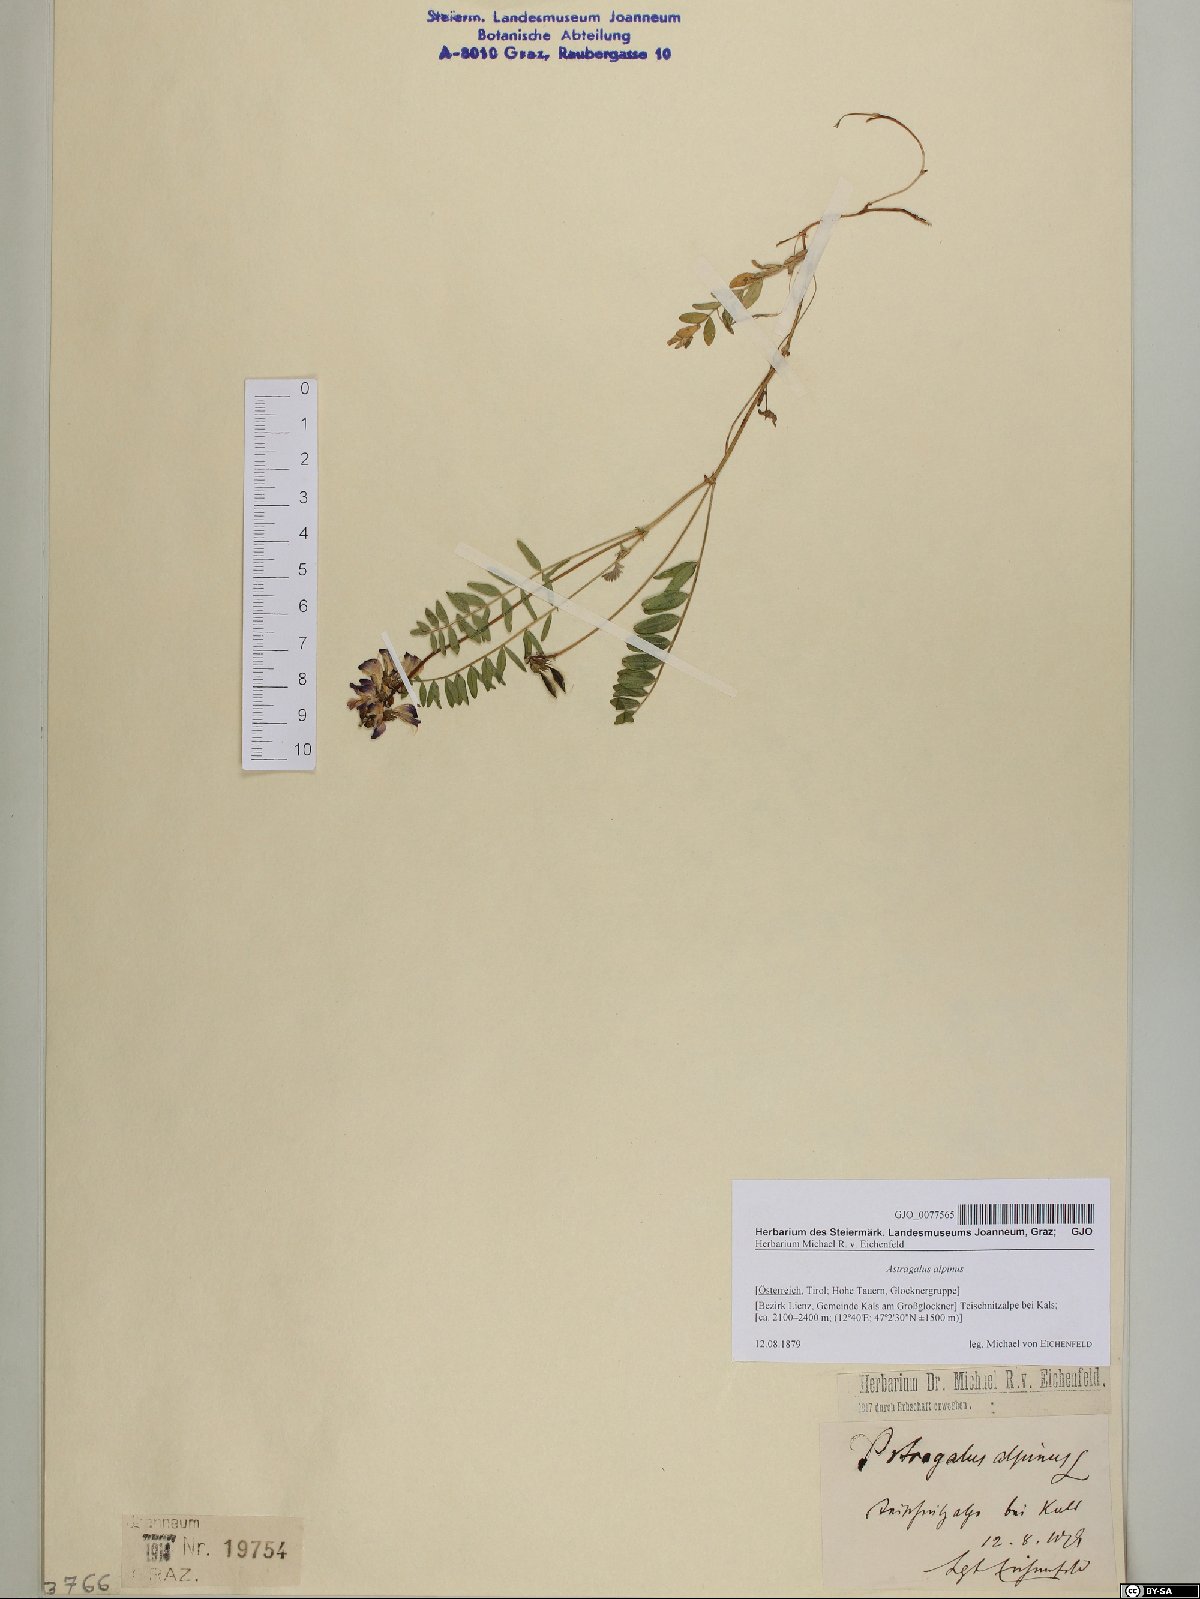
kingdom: Plantae
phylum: Tracheophyta
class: Magnoliopsida
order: Fabales
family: Fabaceae
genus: Astragalus
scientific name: Astragalus alpinus
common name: Alpine milk-vetch
